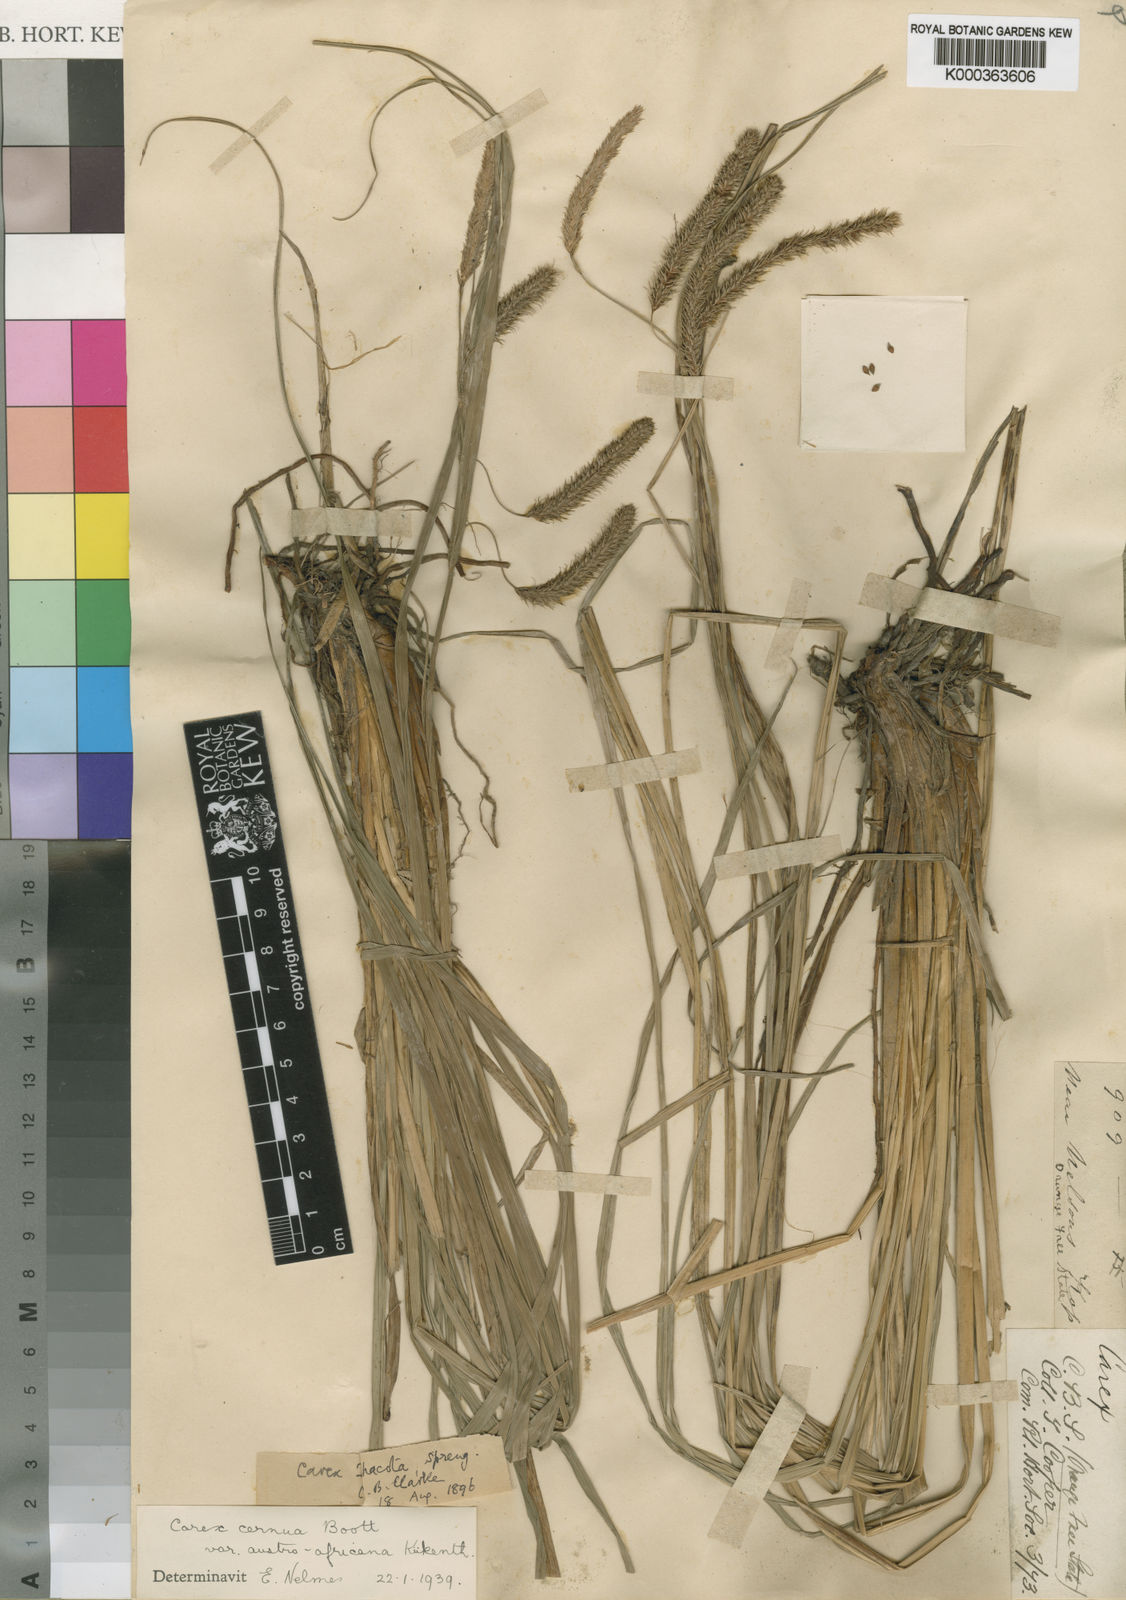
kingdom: Plantae
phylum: Tracheophyta
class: Liliopsida
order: Poales
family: Cyperaceae
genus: Carex
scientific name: Carex
